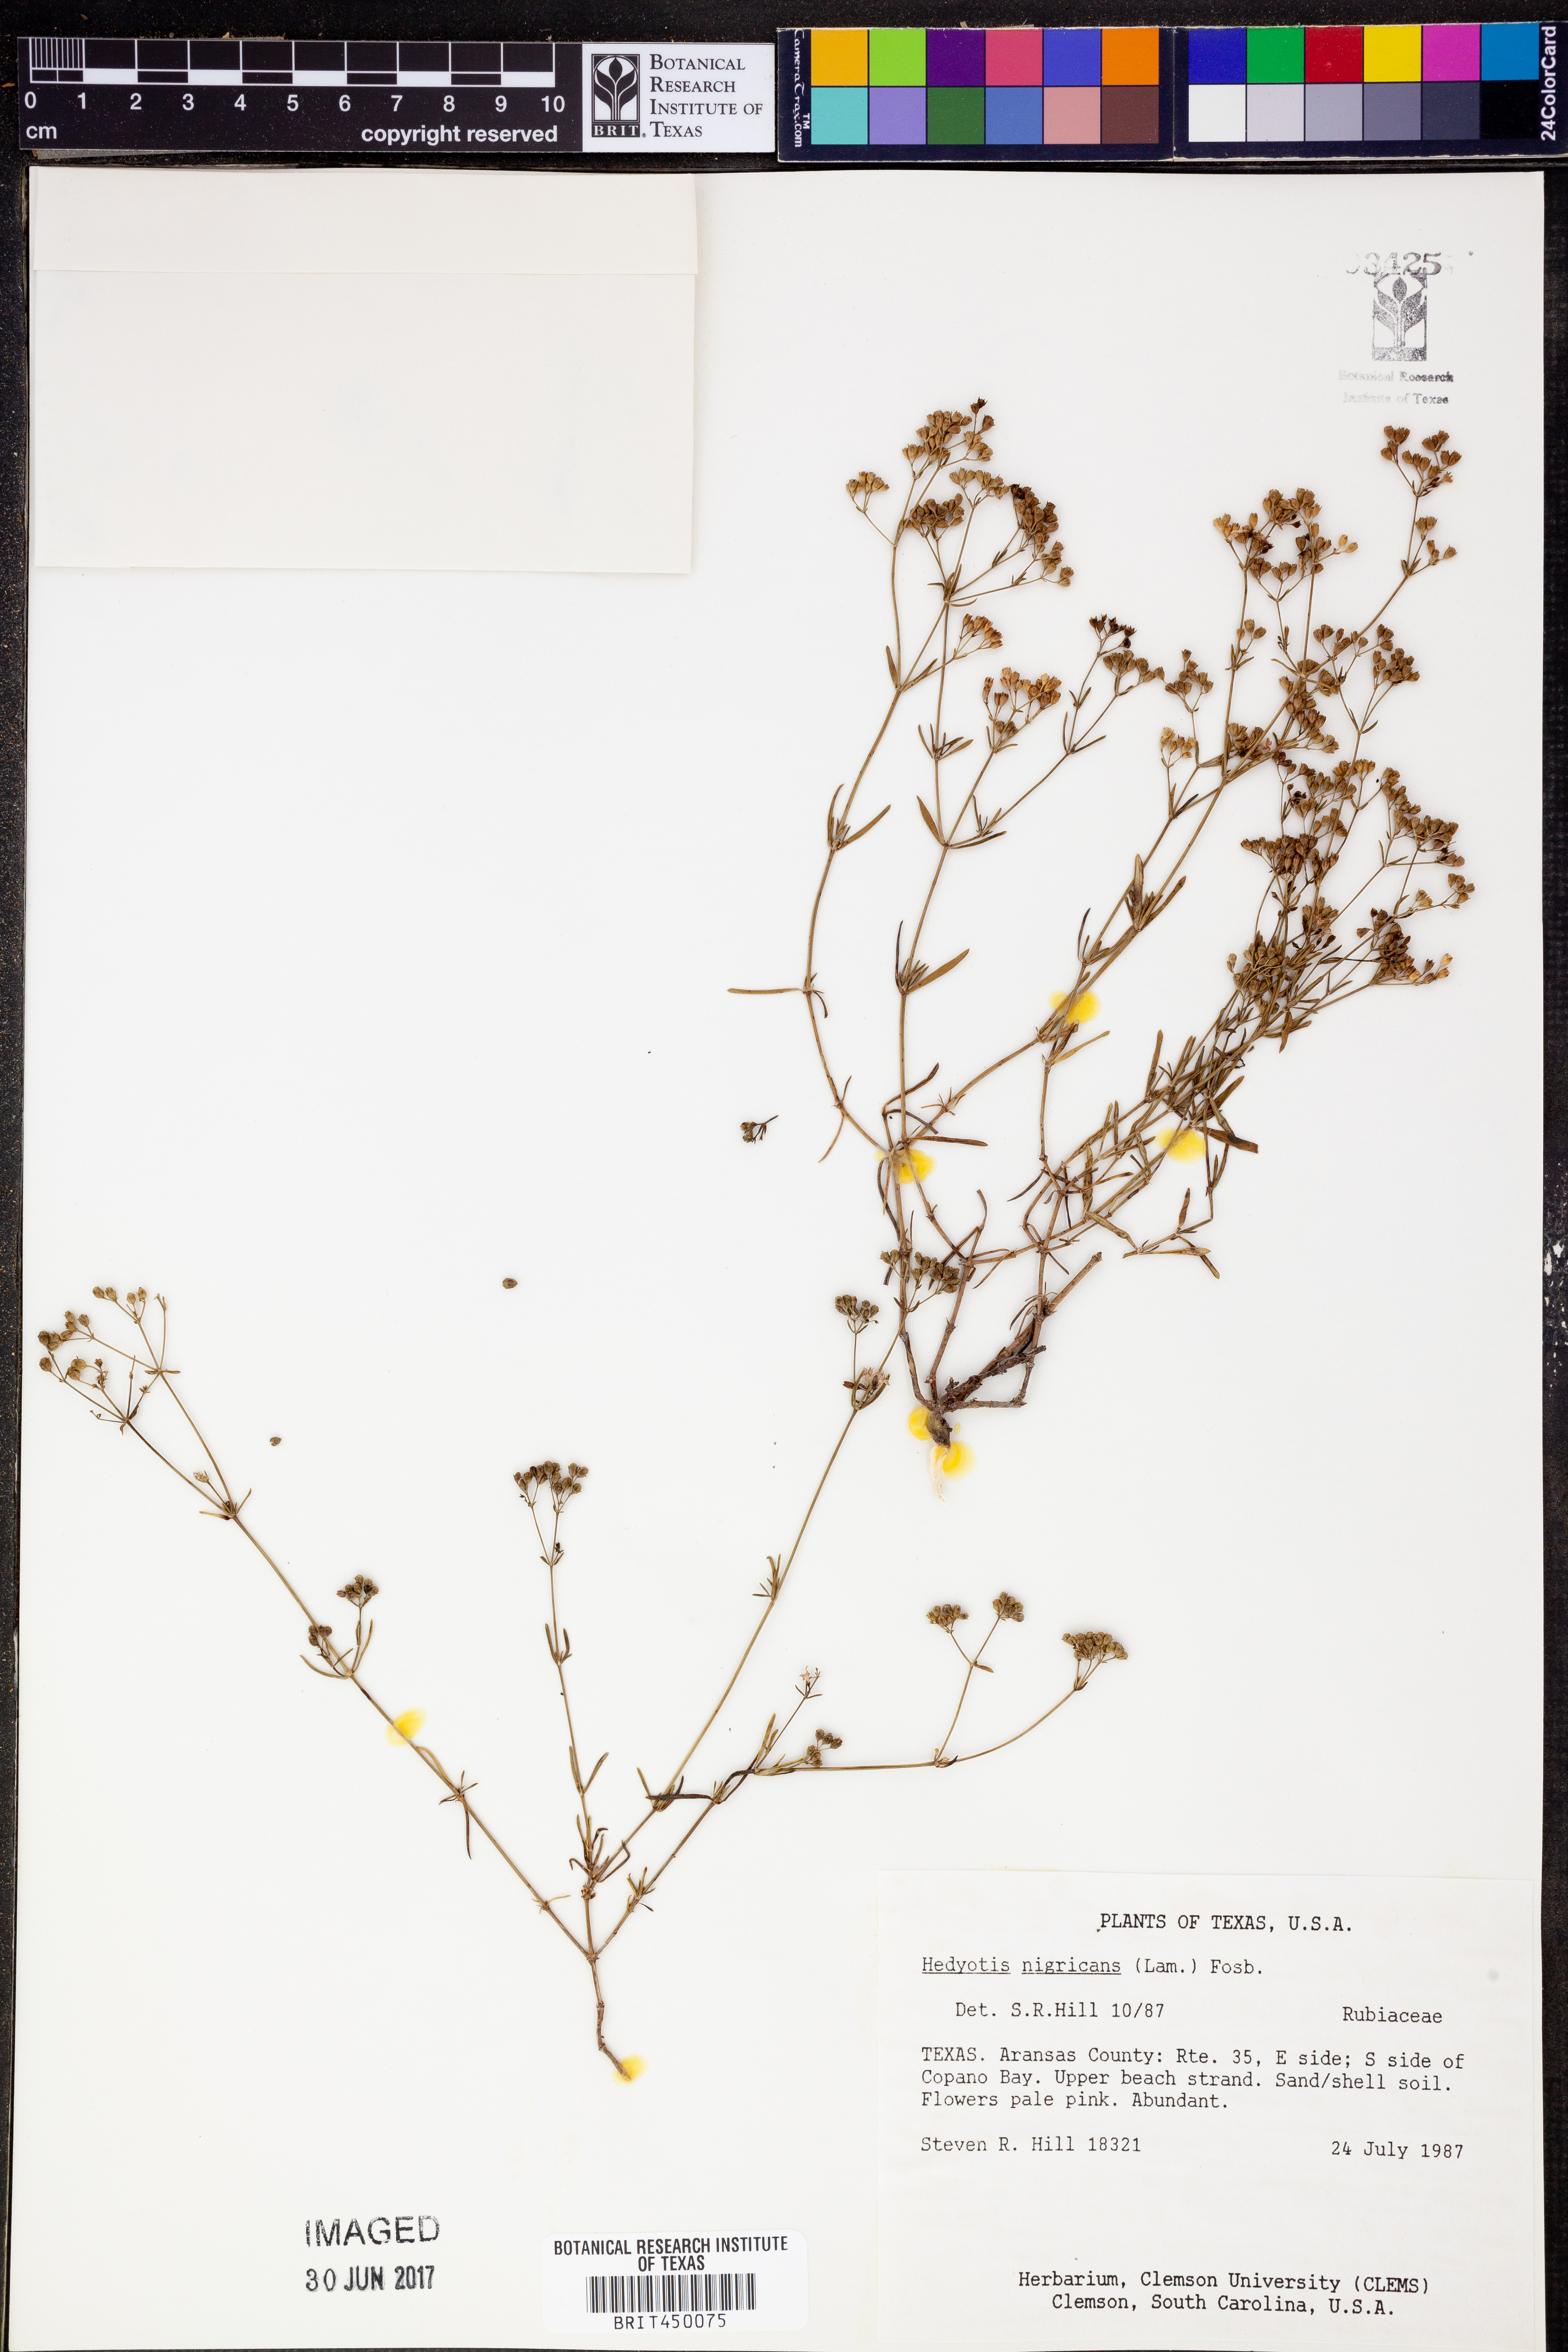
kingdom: Plantae
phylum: Tracheophyta
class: Magnoliopsida
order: Gentianales
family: Rubiaceae
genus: Stenaria
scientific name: Stenaria nigricans
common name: Diamondflowers
